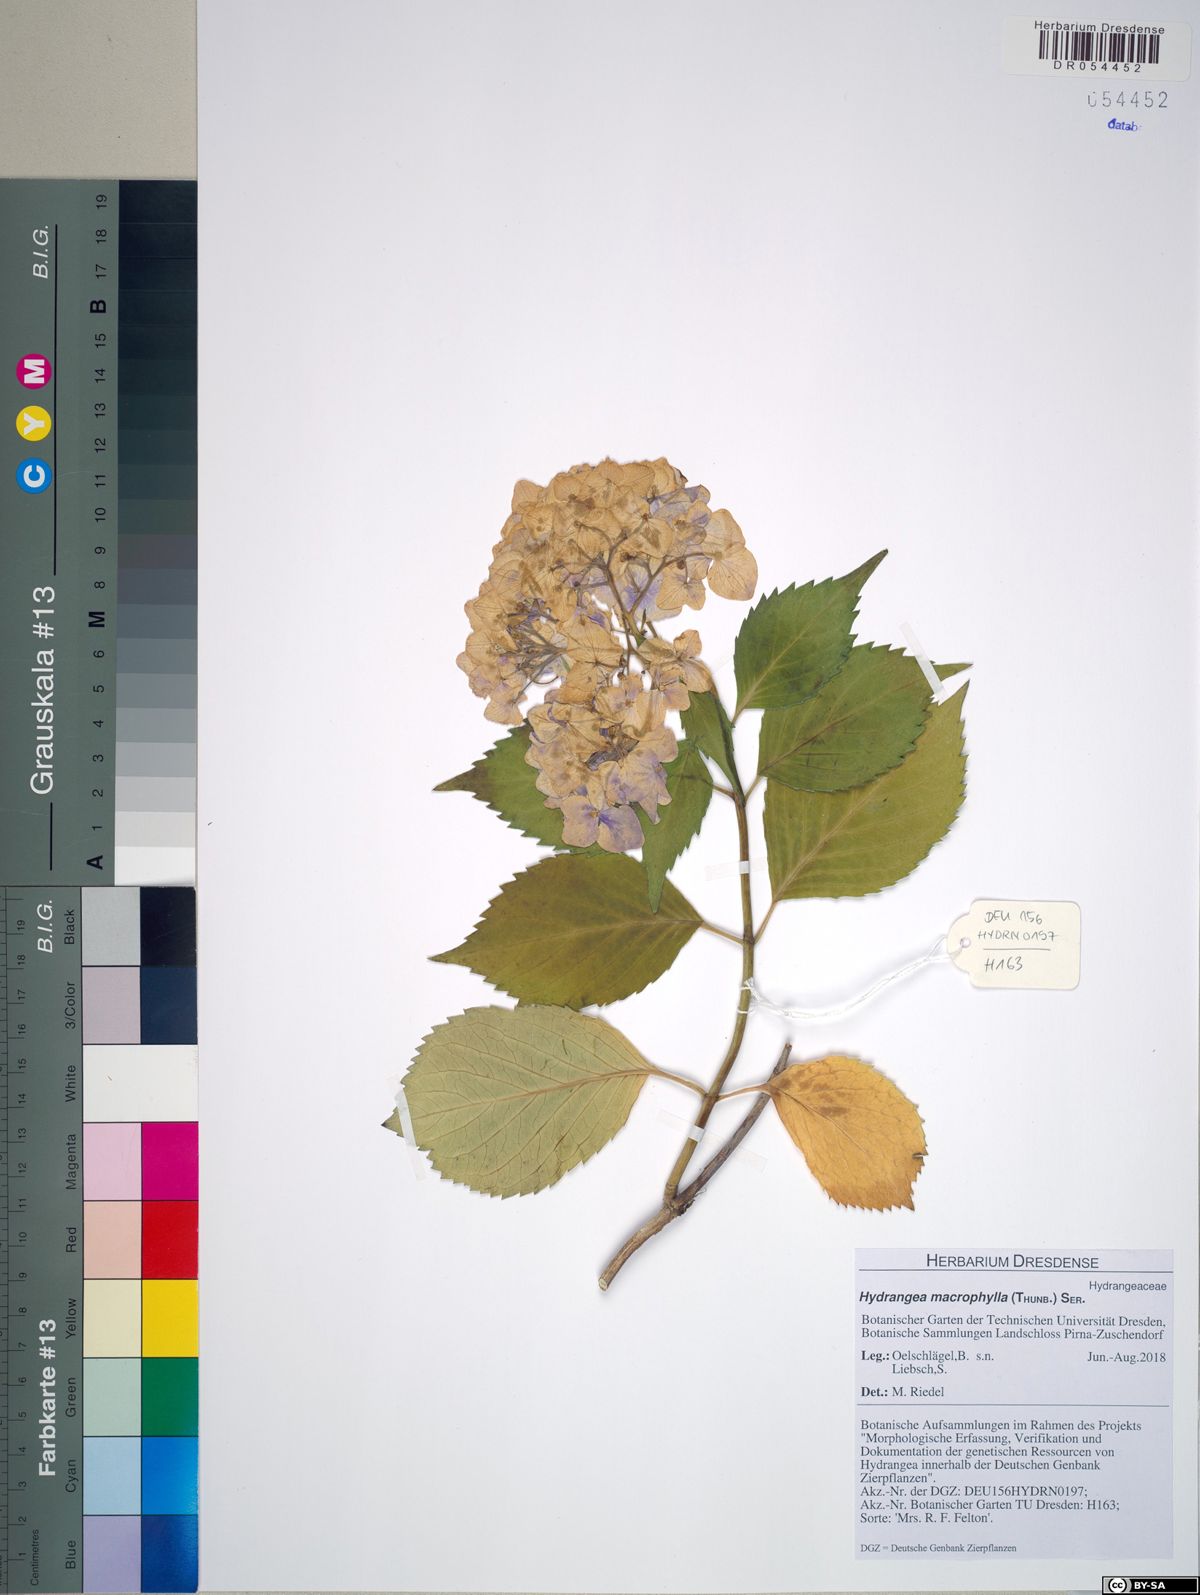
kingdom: Plantae
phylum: Tracheophyta
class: Magnoliopsida
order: Cornales
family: Hydrangeaceae
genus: Hydrangea
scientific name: Hydrangea macrophylla
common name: Hydrangea
